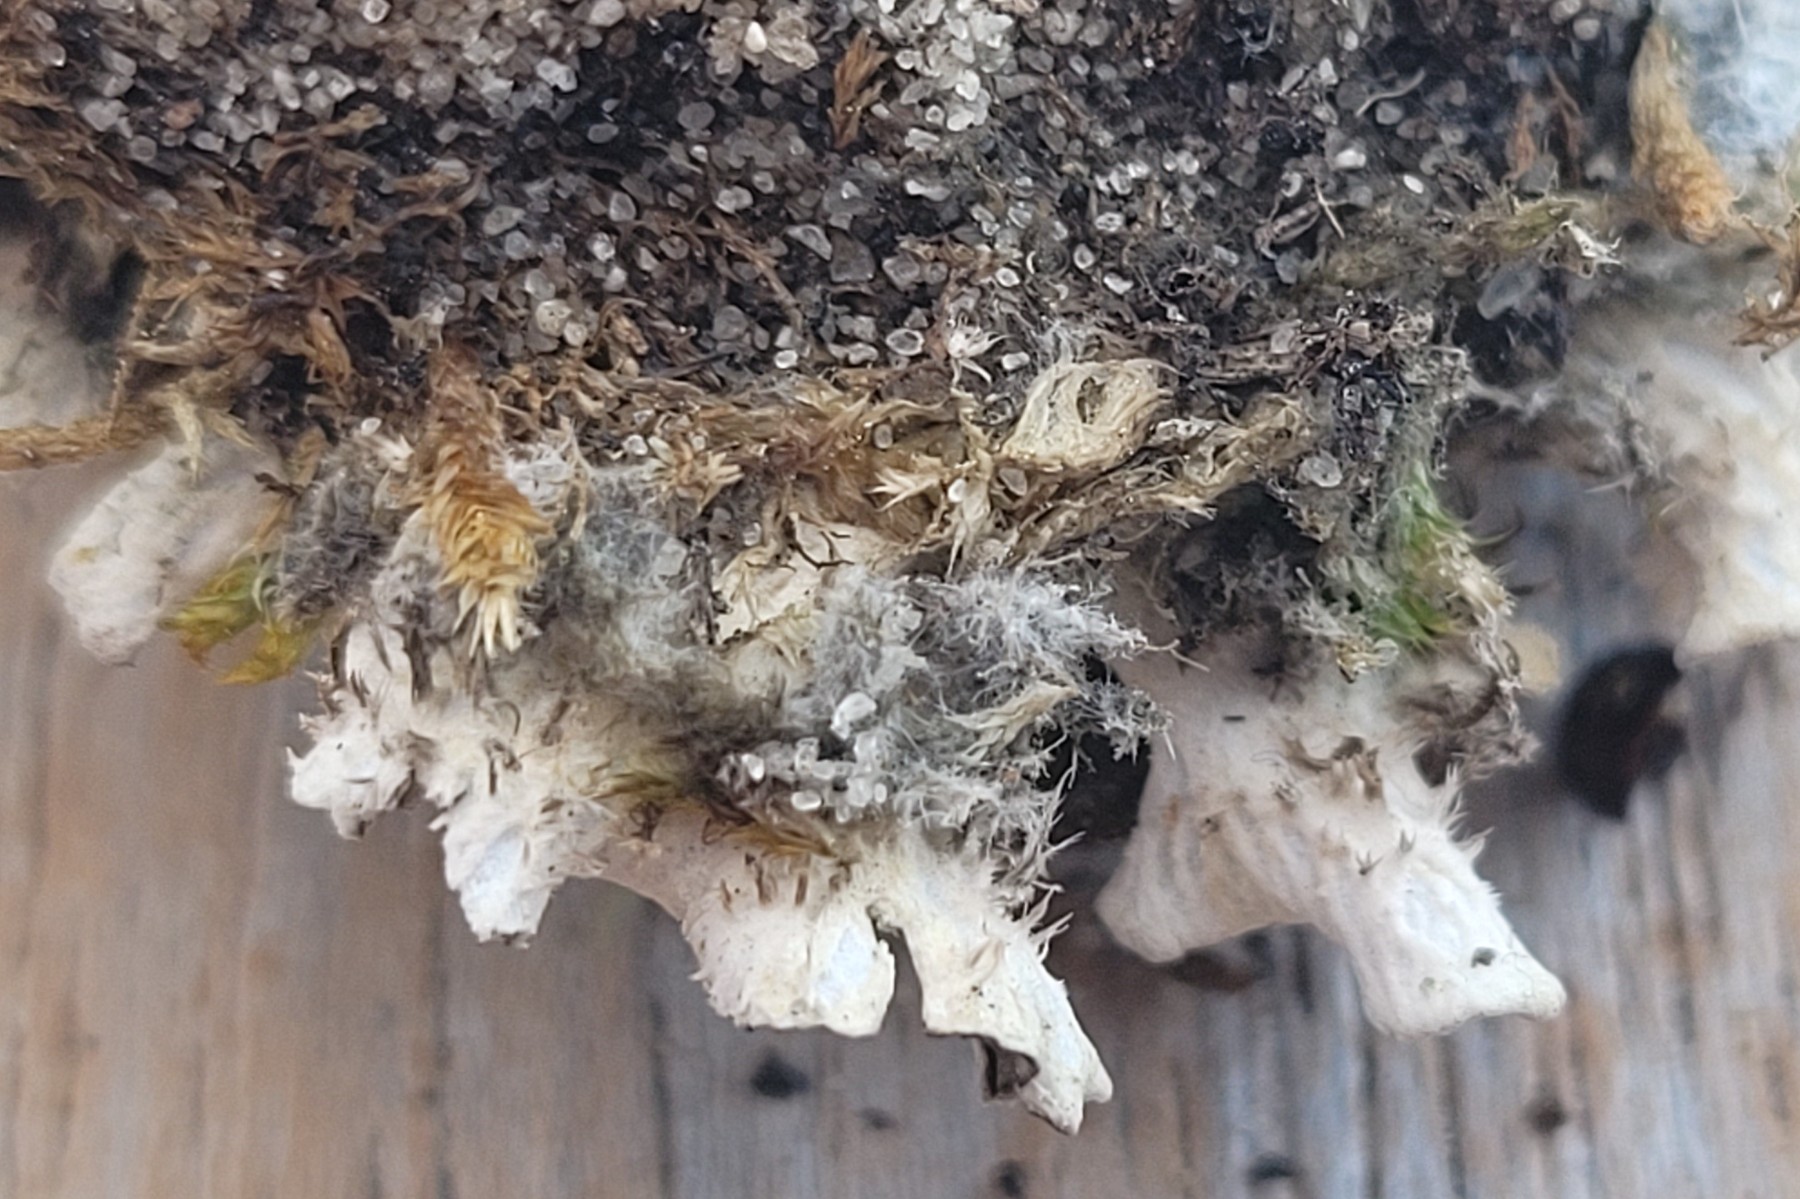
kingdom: Fungi
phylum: Ascomycota
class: Lecanoromycetes
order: Peltigerales
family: Peltigeraceae
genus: Peltigera
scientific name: Peltigera rufescens
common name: brun skjoldlav
